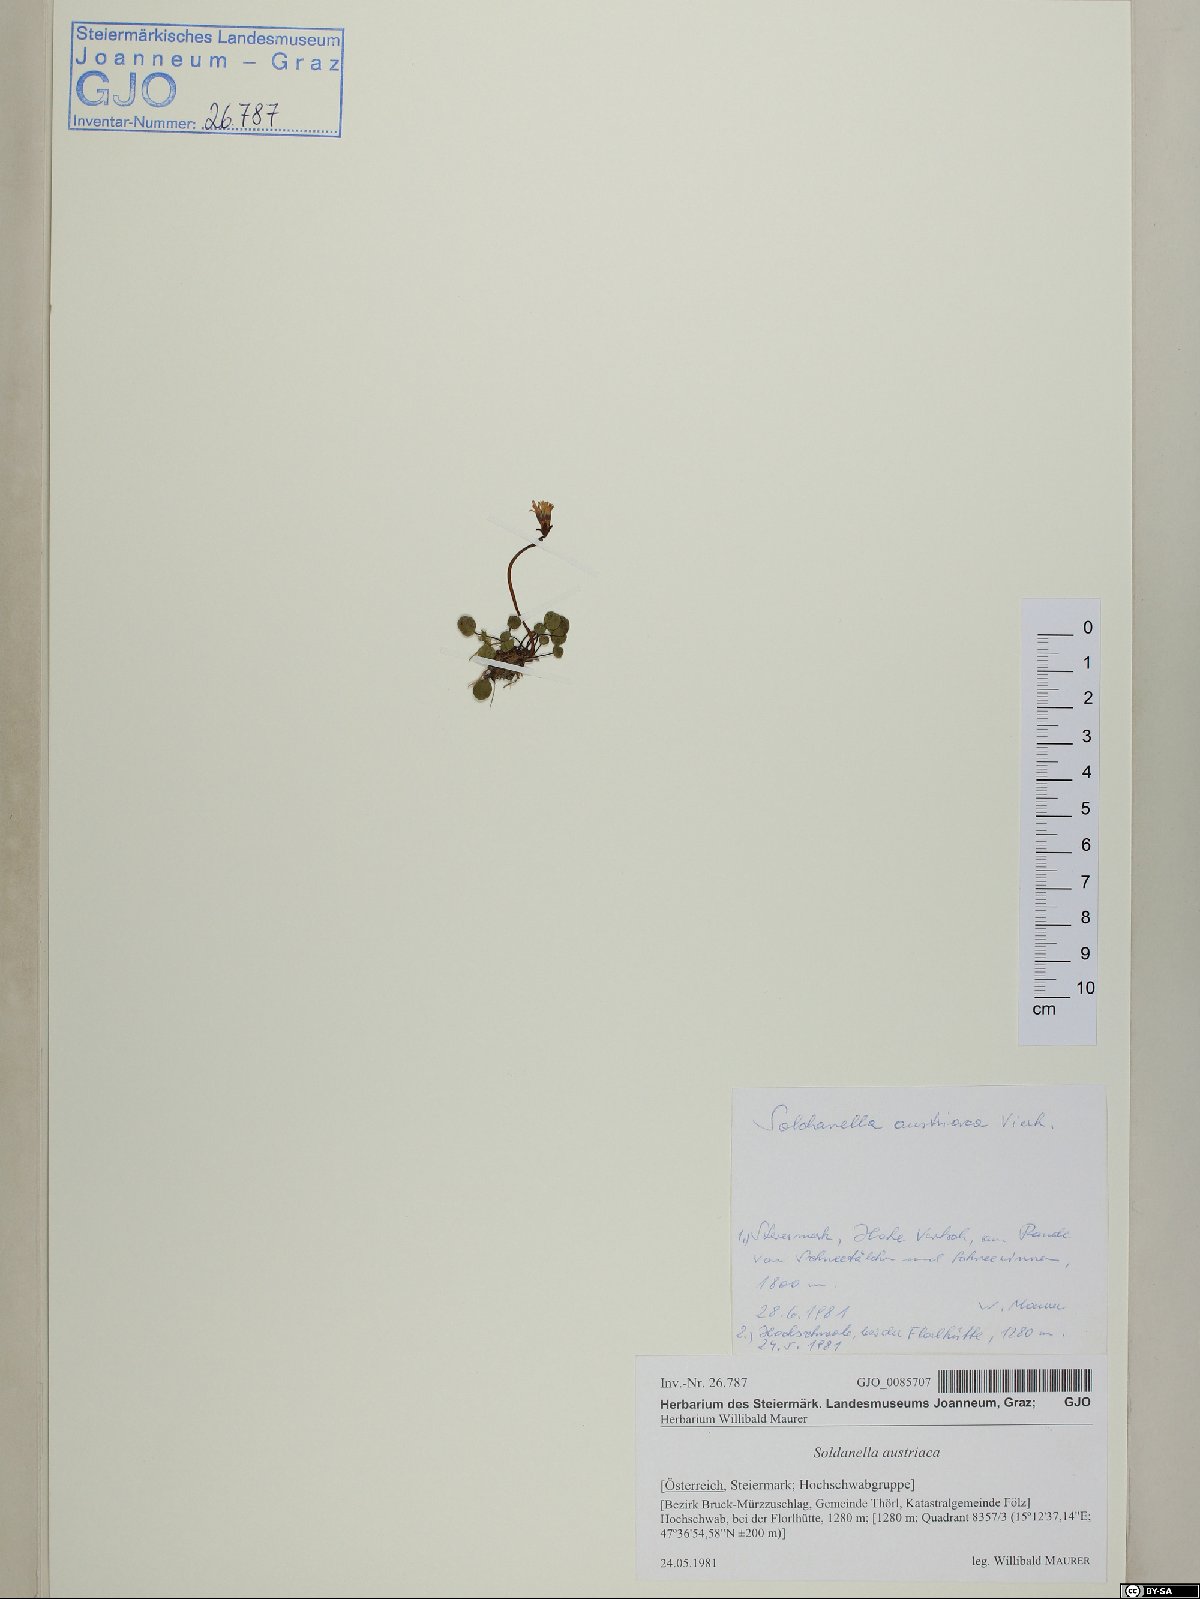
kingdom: Plantae
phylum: Tracheophyta
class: Magnoliopsida
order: Ericales
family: Primulaceae
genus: Soldanella
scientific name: Soldanella austriaca
